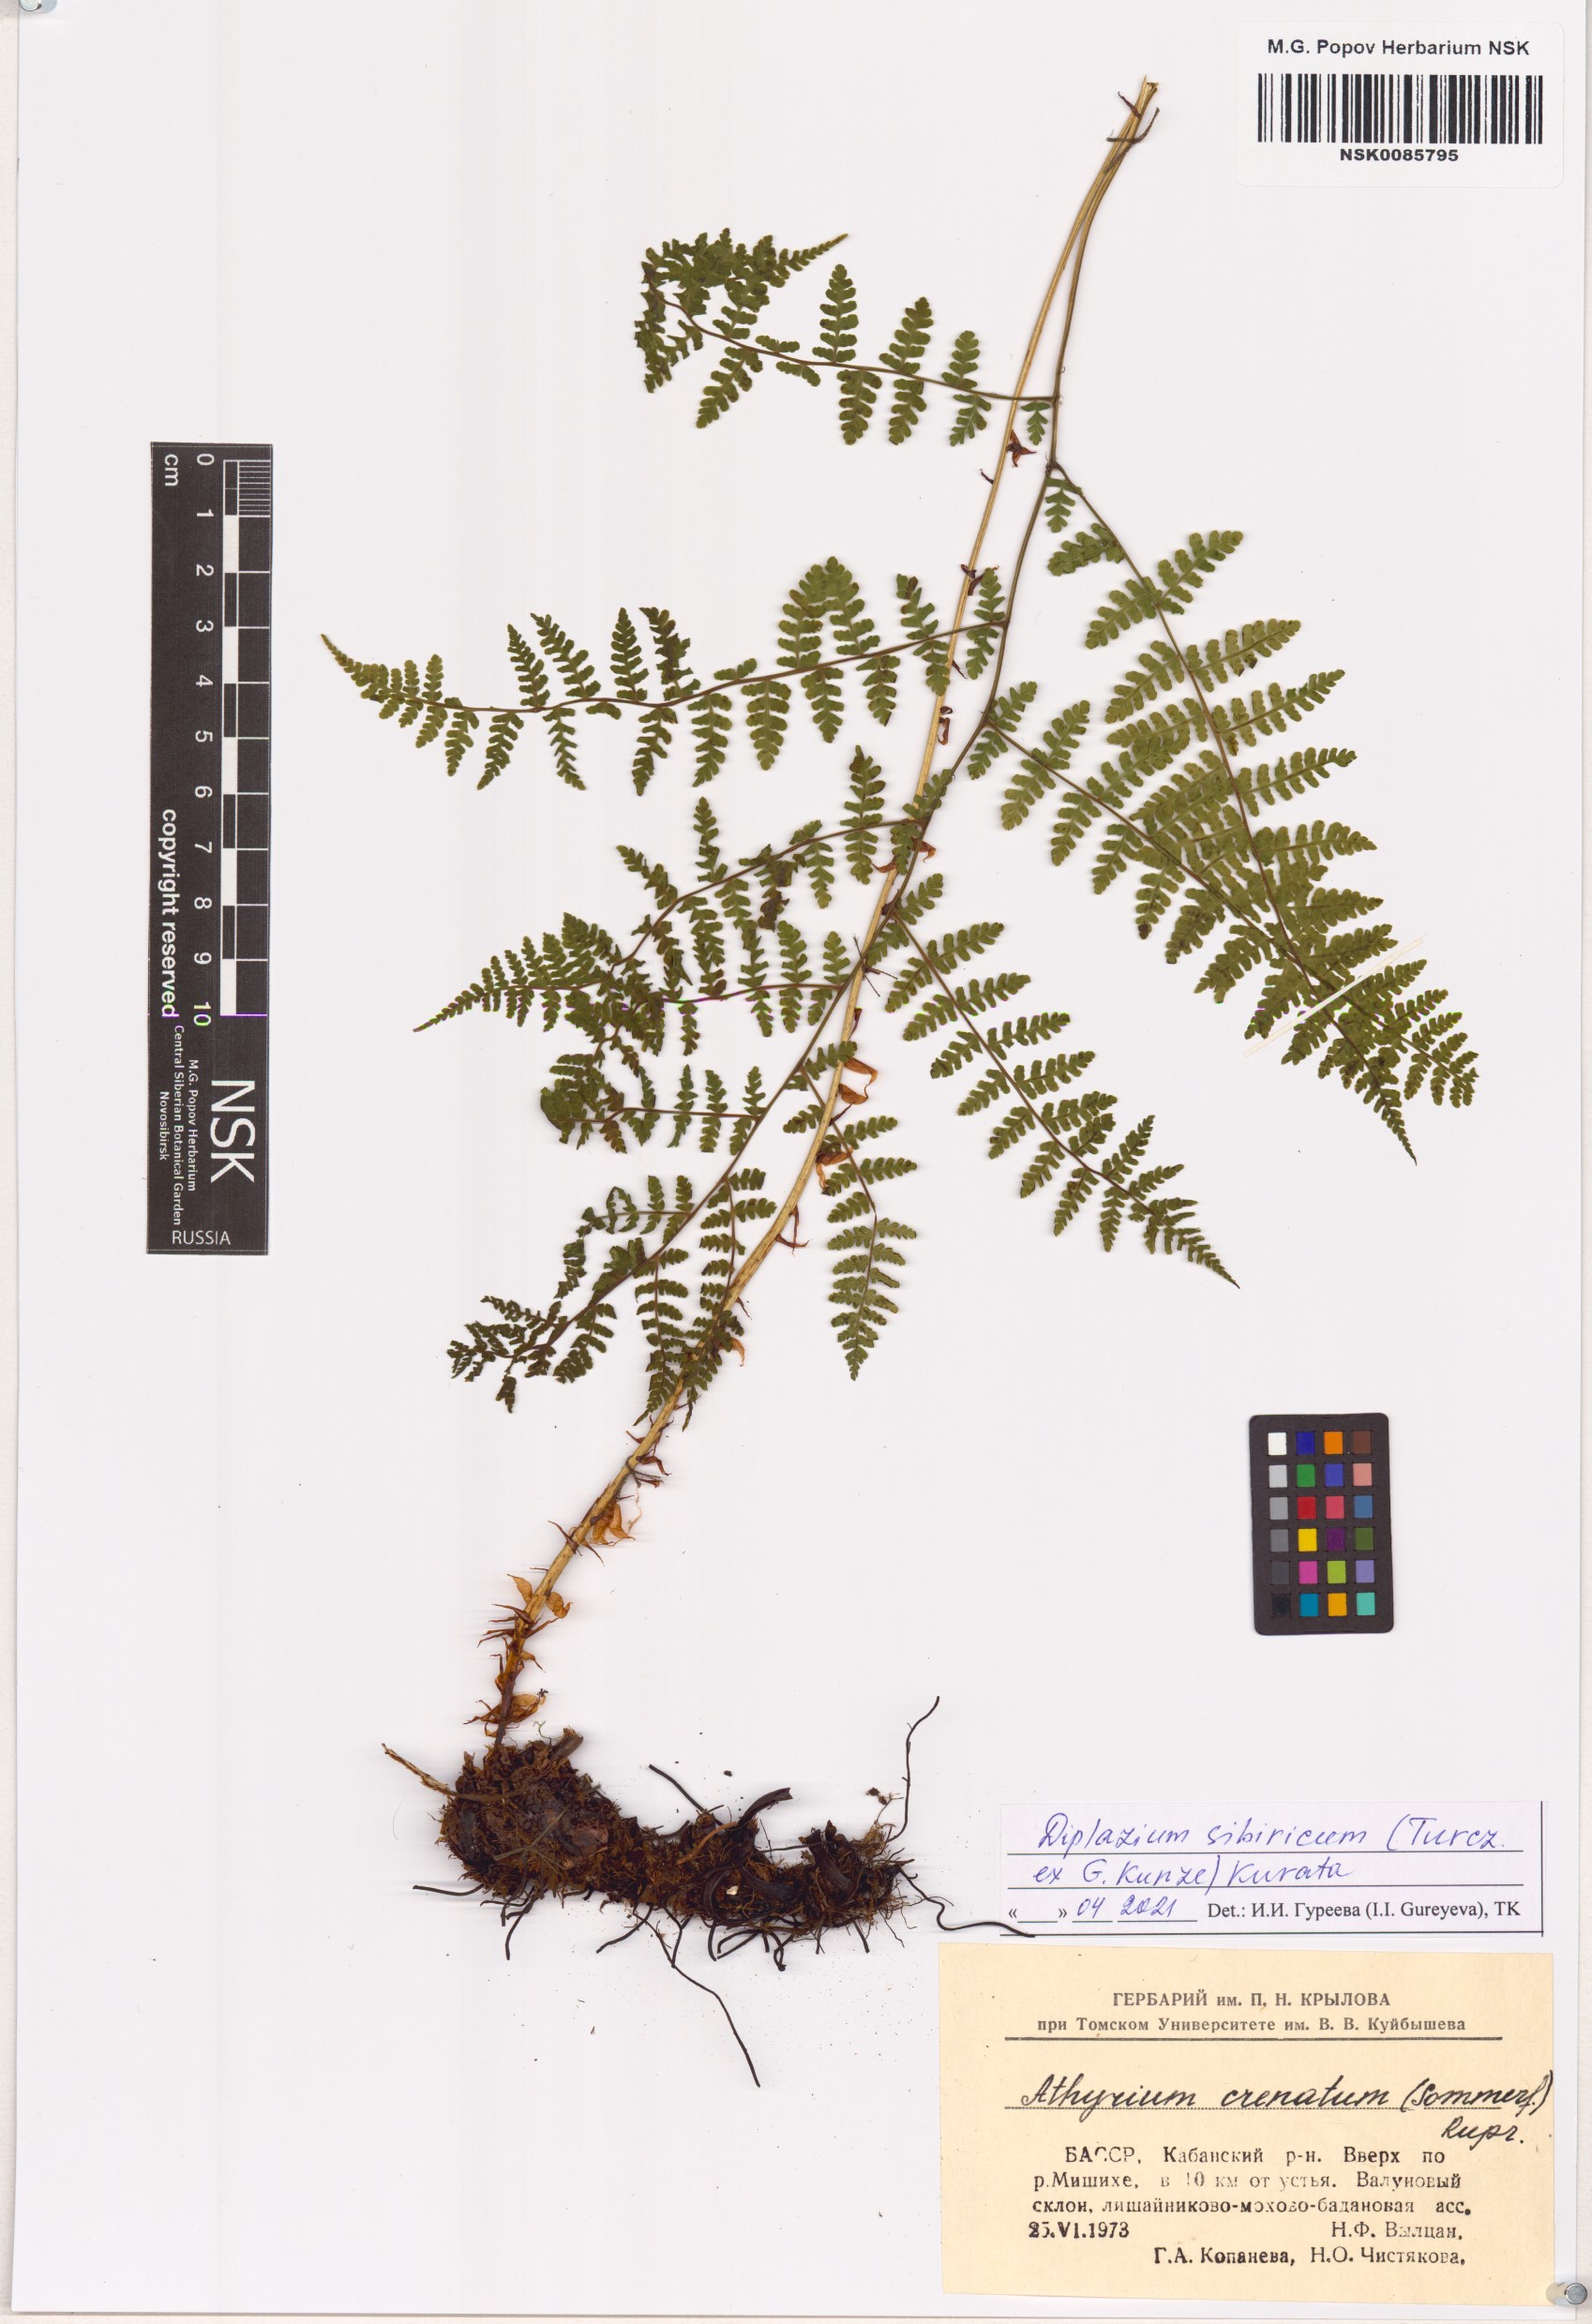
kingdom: Plantae
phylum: Tracheophyta
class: Polypodiopsida
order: Polypodiales
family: Athyriaceae
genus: Diplazium
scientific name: Diplazium sibiricum
